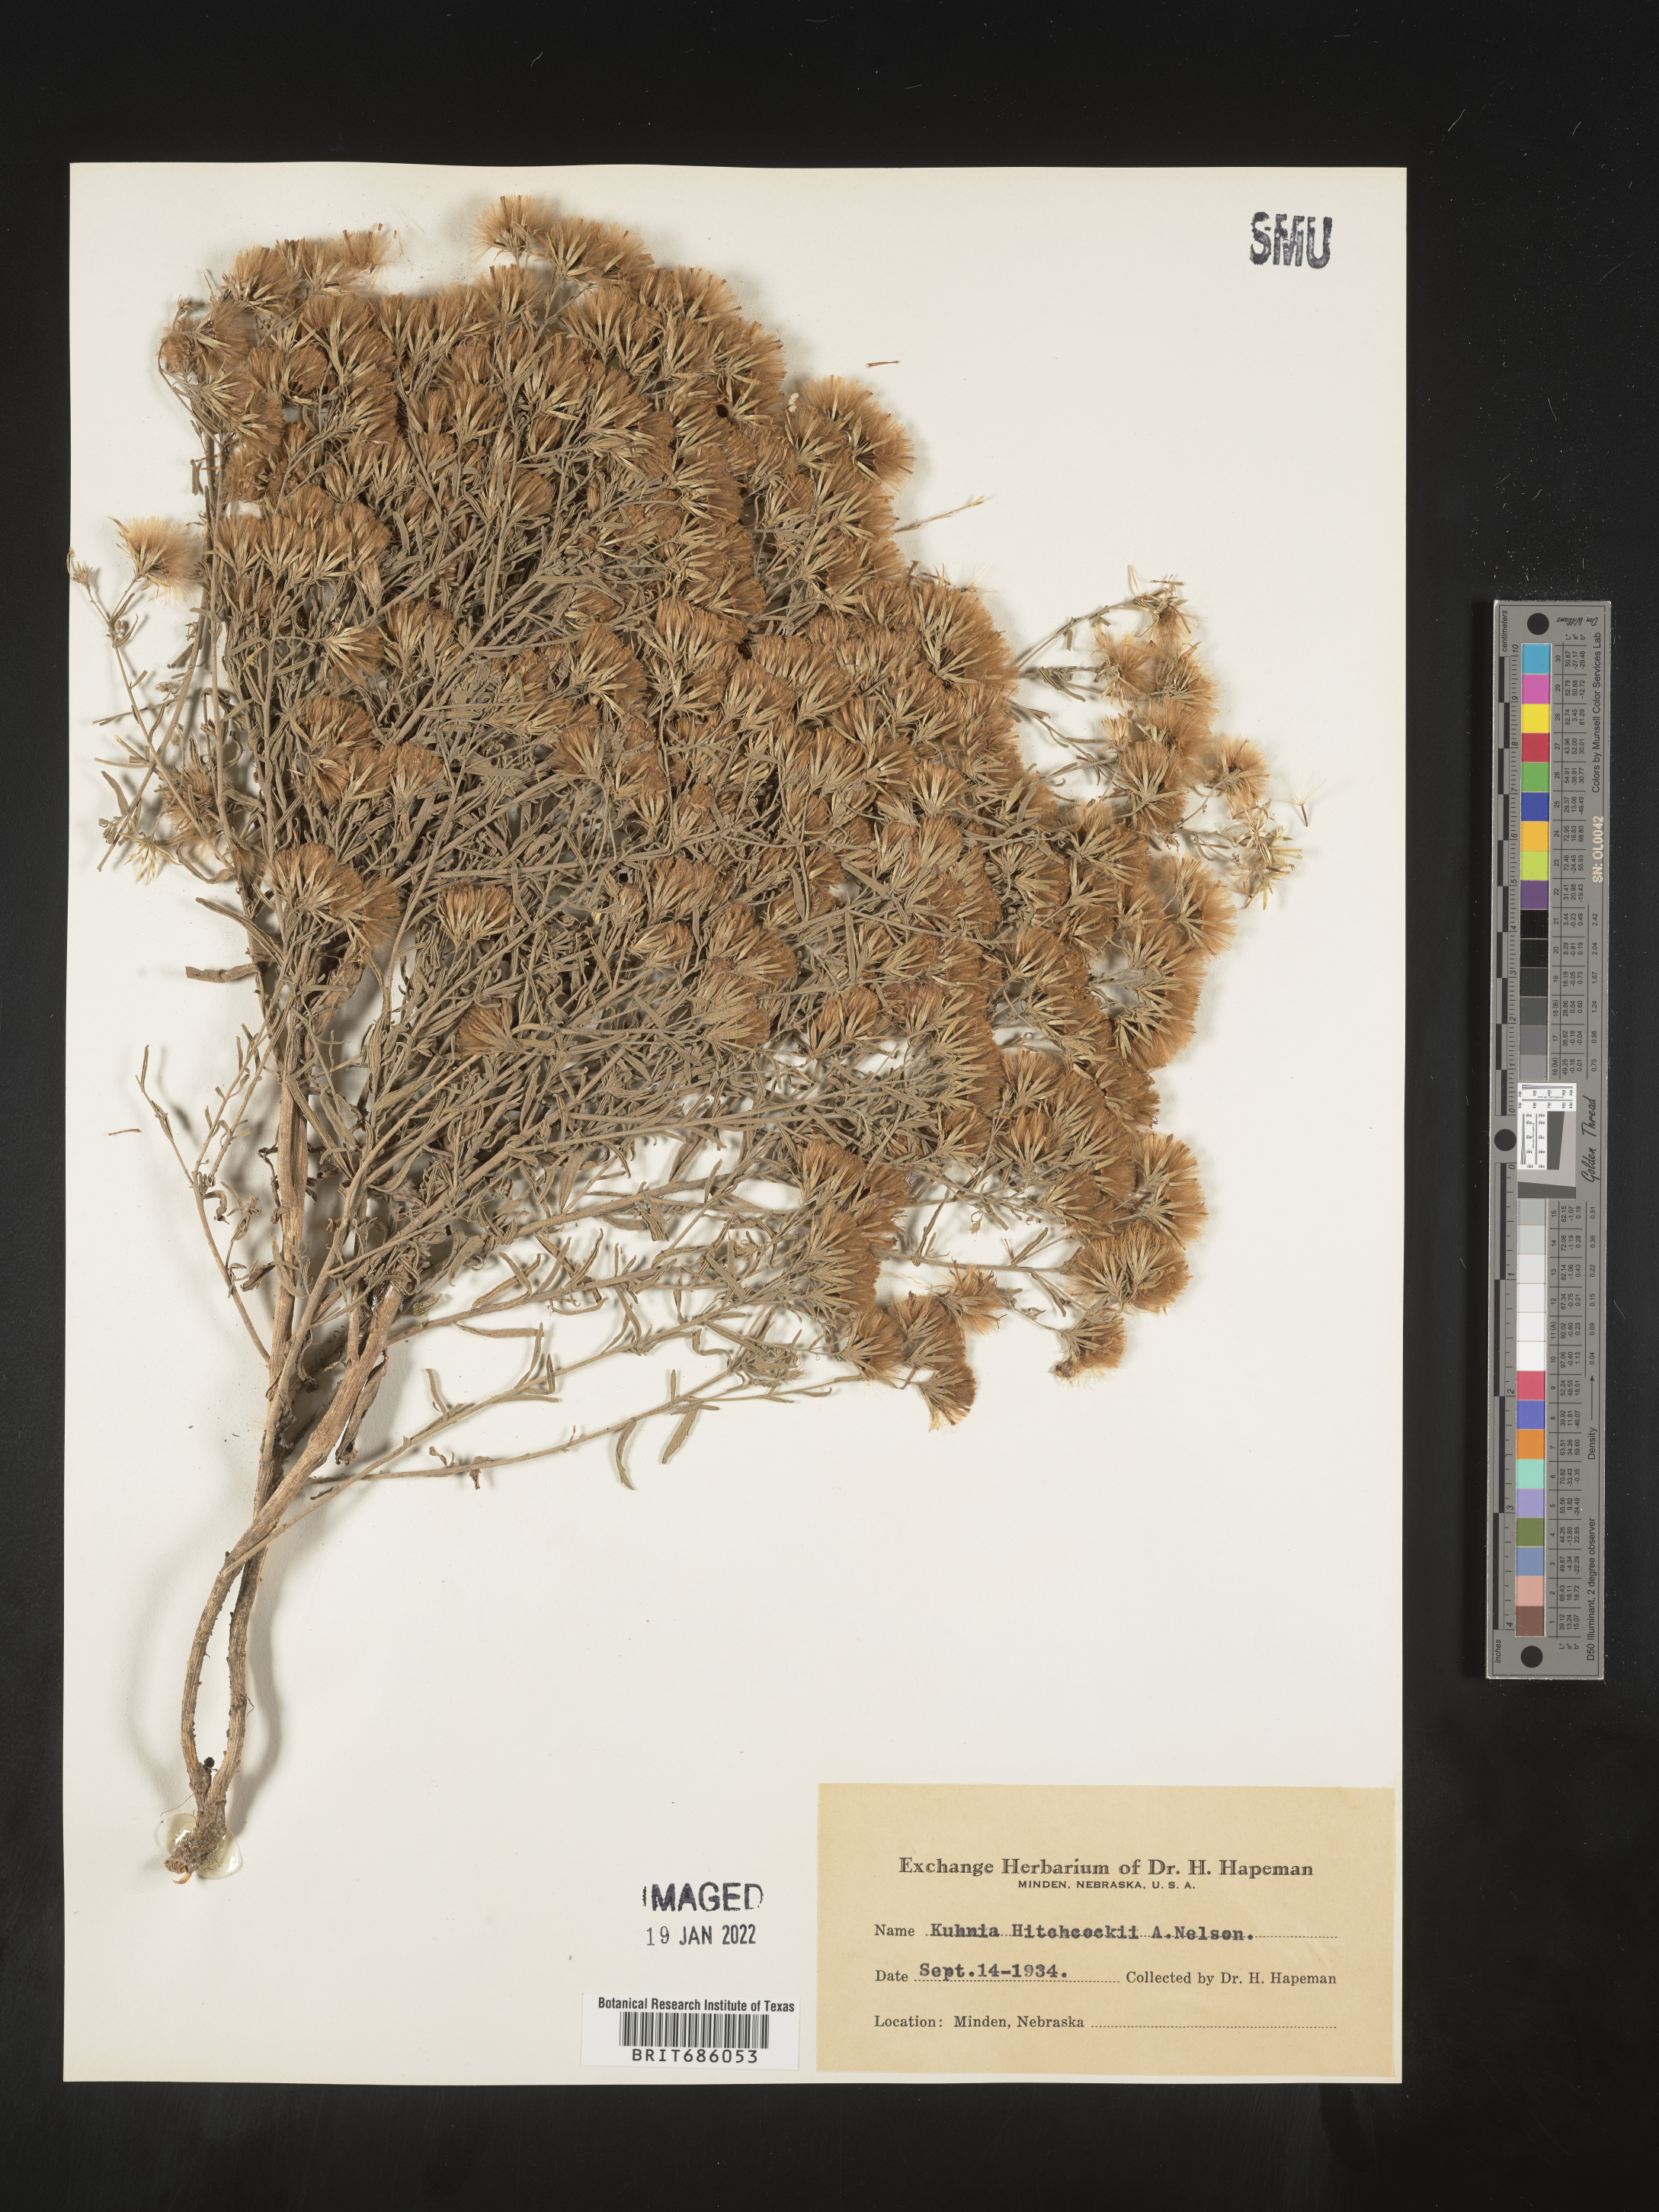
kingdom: Plantae
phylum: Tracheophyta
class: Magnoliopsida
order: Asterales
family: Asteraceae
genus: Brickellia
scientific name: Brickellia suaveolens
